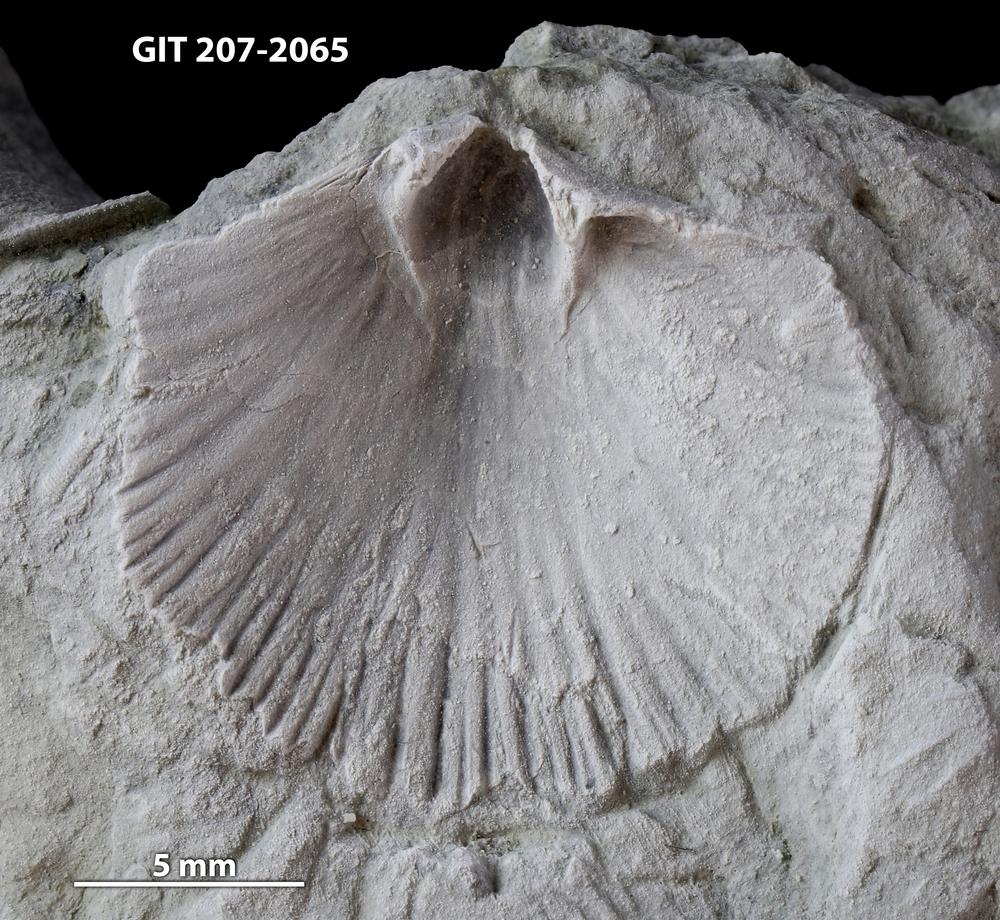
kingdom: Animalia
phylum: Brachiopoda
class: Rhynchonellata
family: Dalmanellidae
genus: Dalmanella
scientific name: Dalmanella
